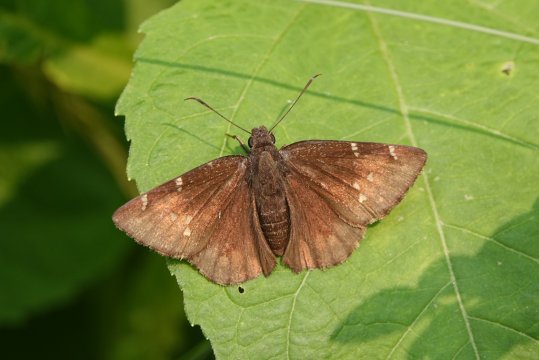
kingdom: Animalia
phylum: Arthropoda
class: Insecta
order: Lepidoptera
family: Hesperiidae
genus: Autochton
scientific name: Autochton
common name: Northern Cloudywing
